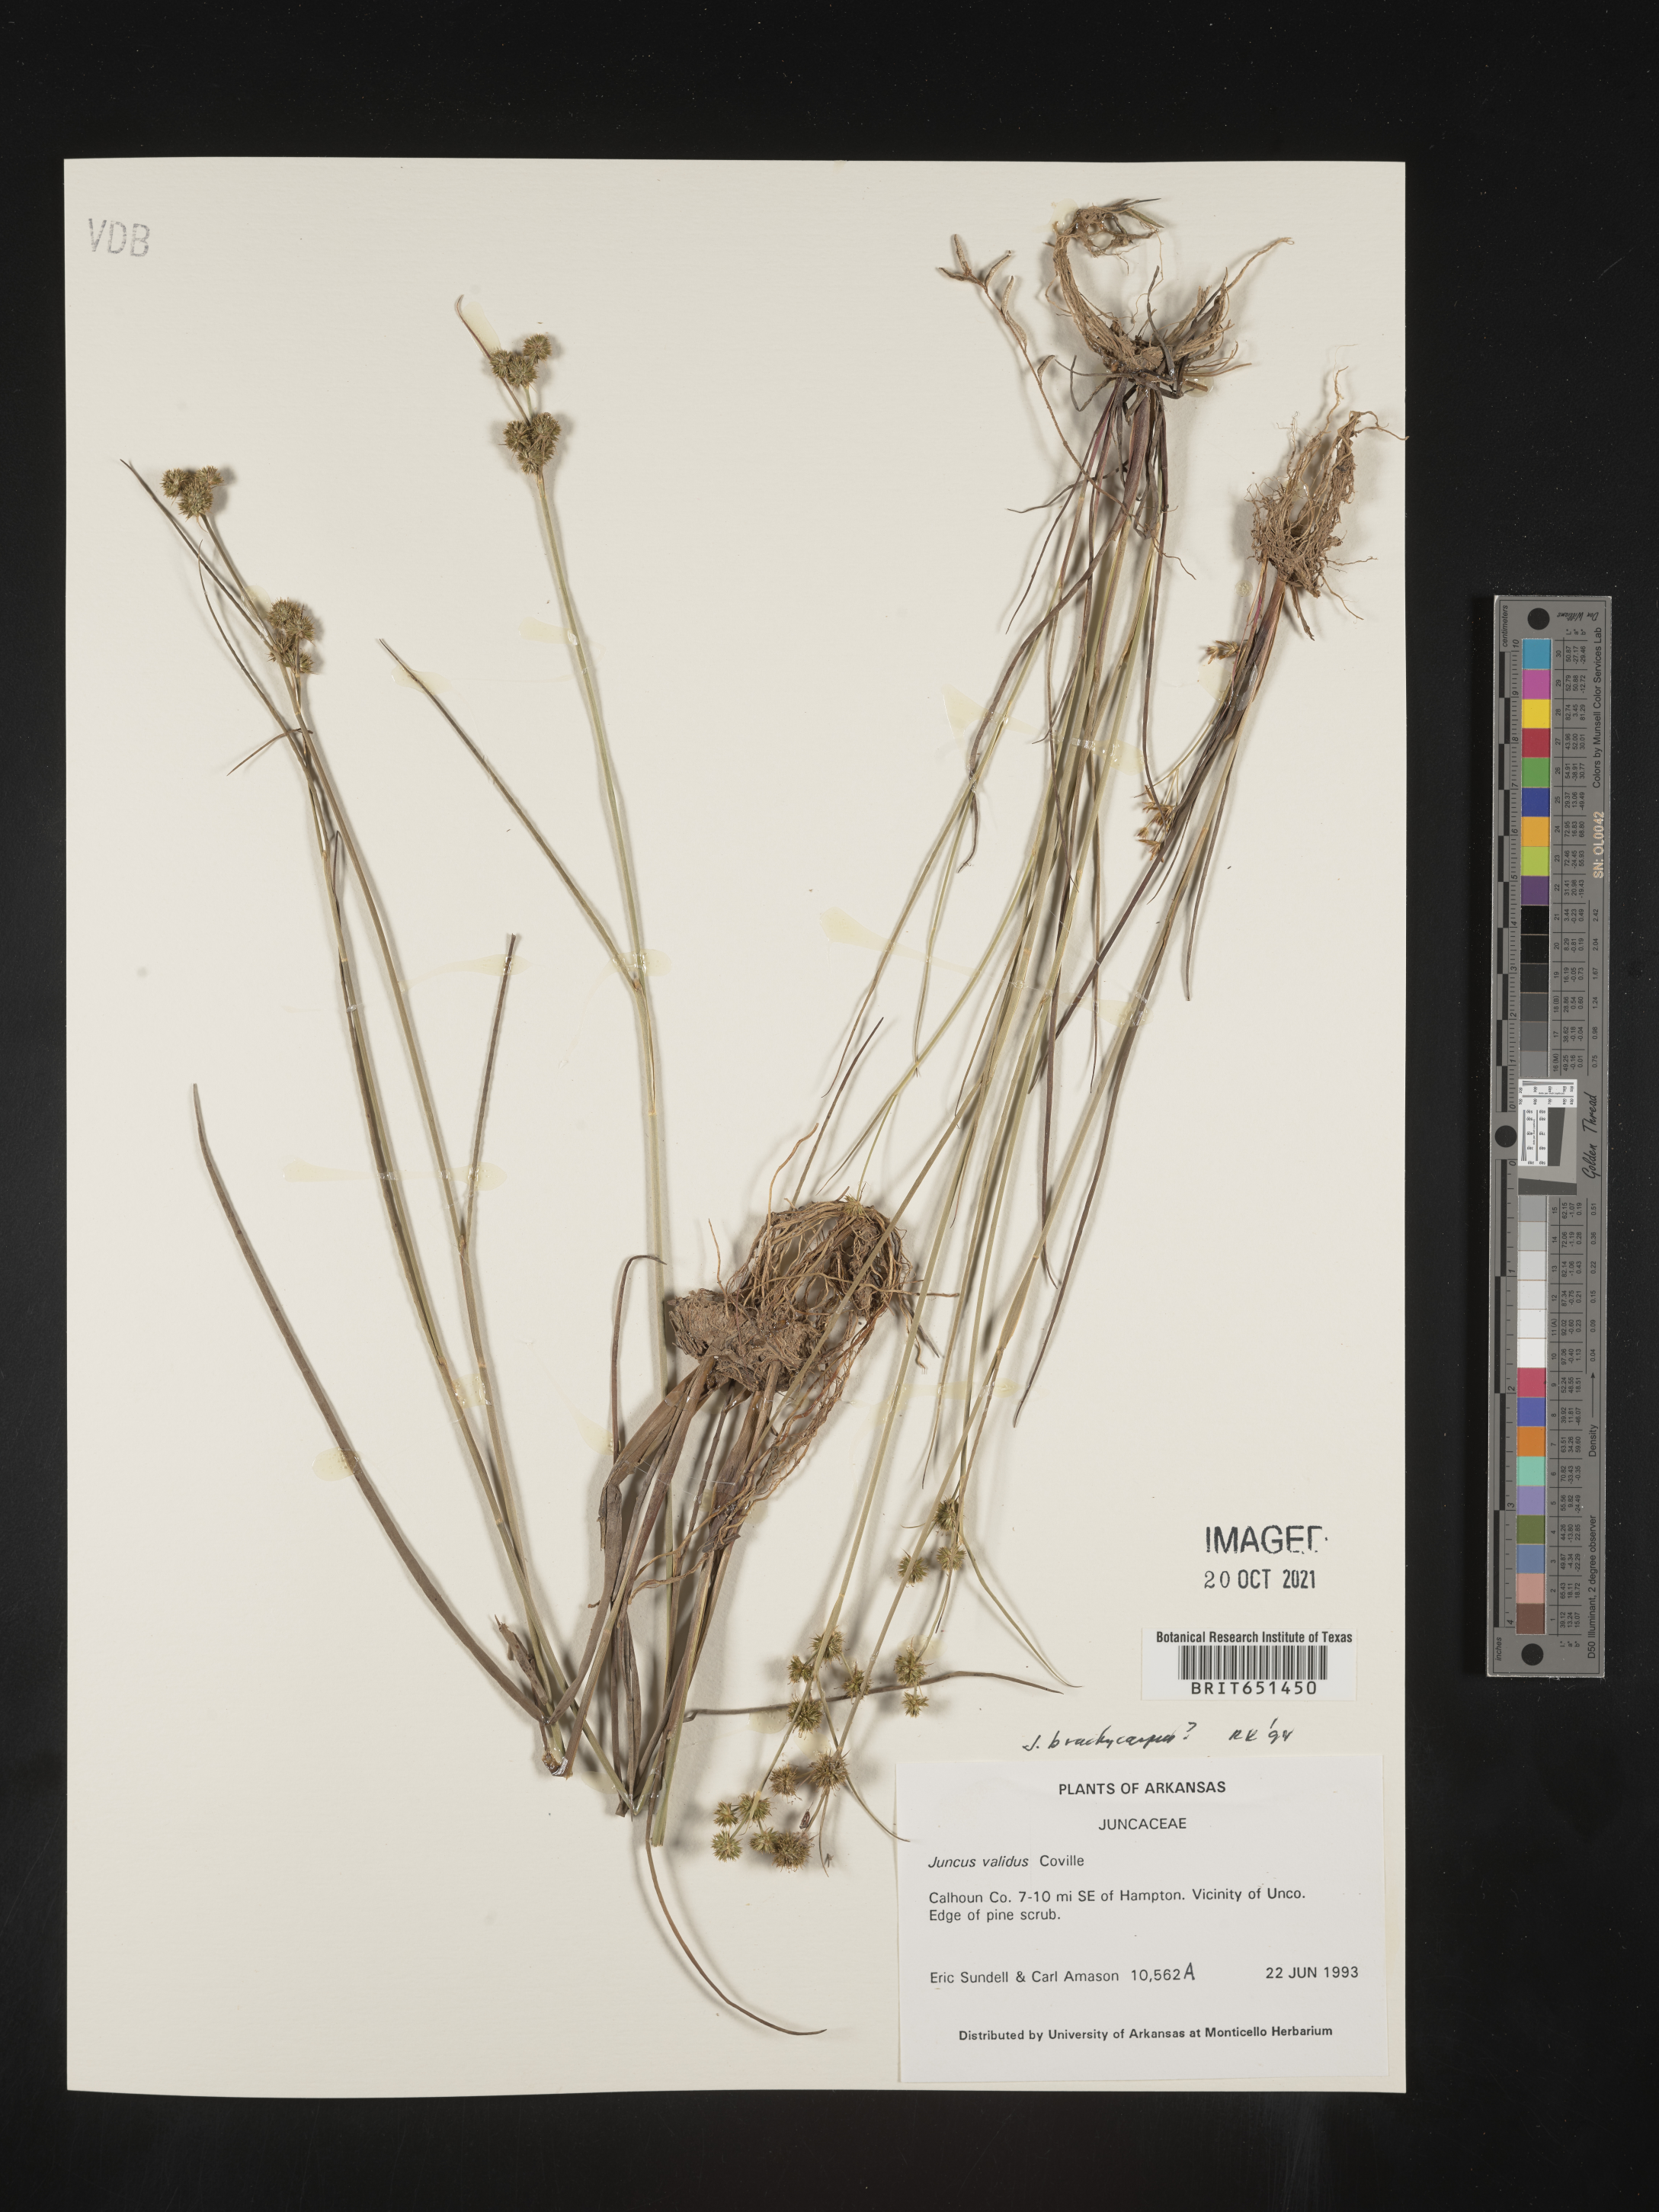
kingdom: Plantae
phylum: Tracheophyta
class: Liliopsida
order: Poales
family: Juncaceae
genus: Juncus
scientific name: Juncus brachycarpus
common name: Shore rush
